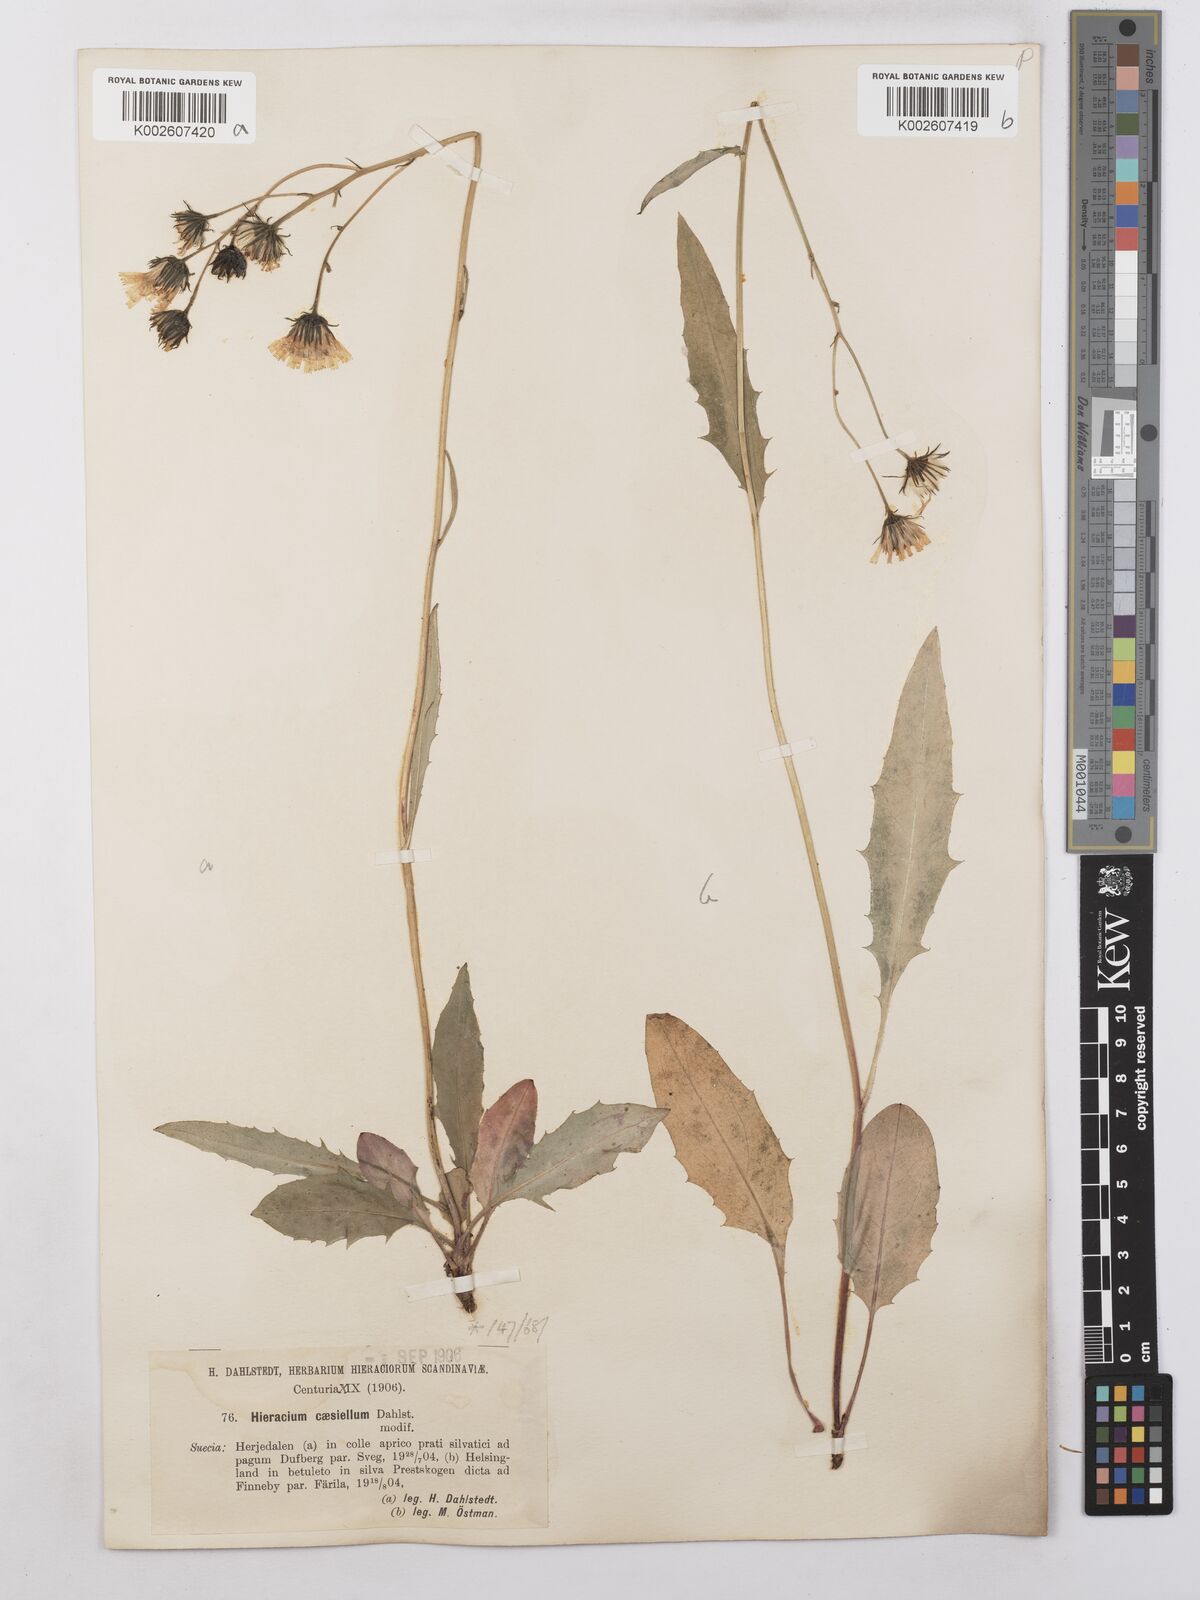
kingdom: Plantae
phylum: Tracheophyta
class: Magnoliopsida
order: Asterales
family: Asteraceae
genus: Hieracium
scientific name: Hieracium caesium
